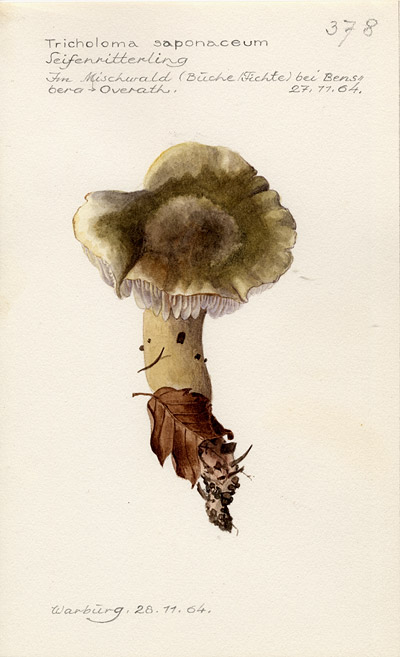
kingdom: Fungi
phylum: Basidiomycota
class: Agaricomycetes
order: Agaricales
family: Tricholomataceae
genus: Tricholoma
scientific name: Tricholoma saponaceum
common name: Soapy trich
